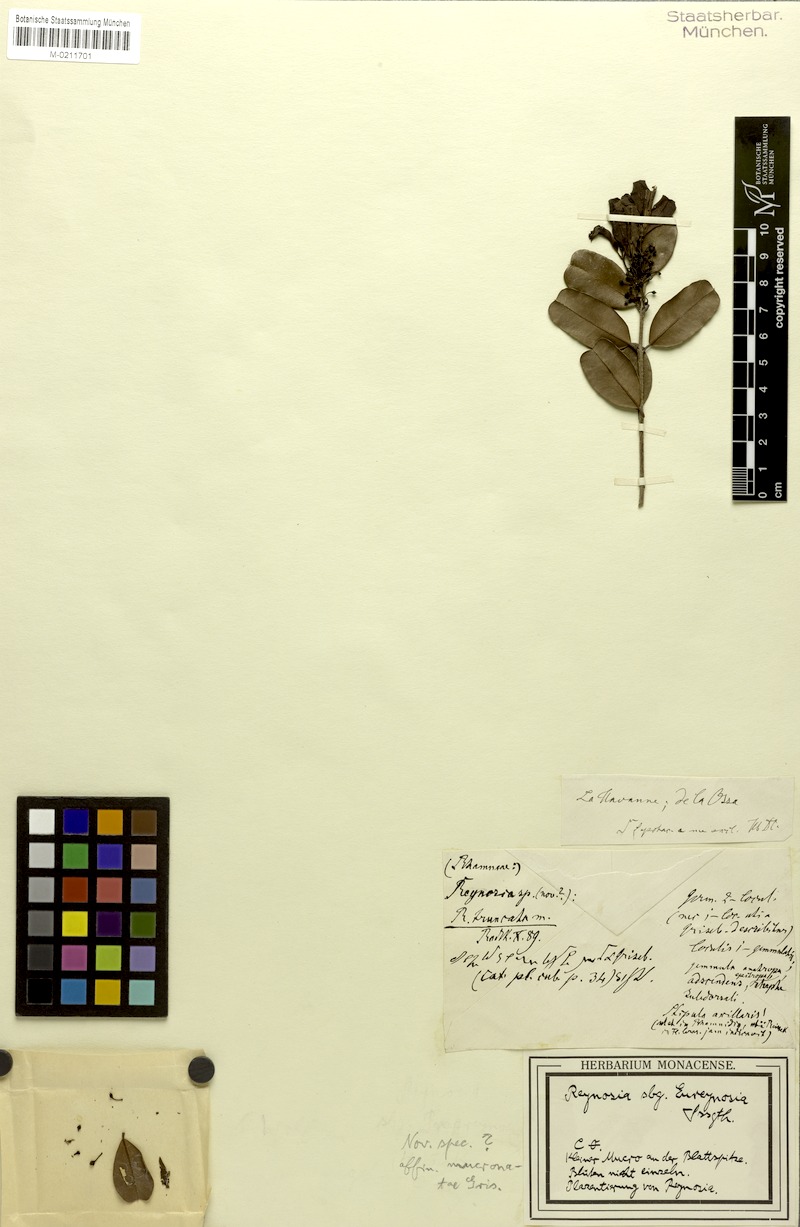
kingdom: Plantae
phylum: Tracheophyta
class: Magnoliopsida
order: Rosales
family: Rhamnaceae
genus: Auerodendron
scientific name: Auerodendron
